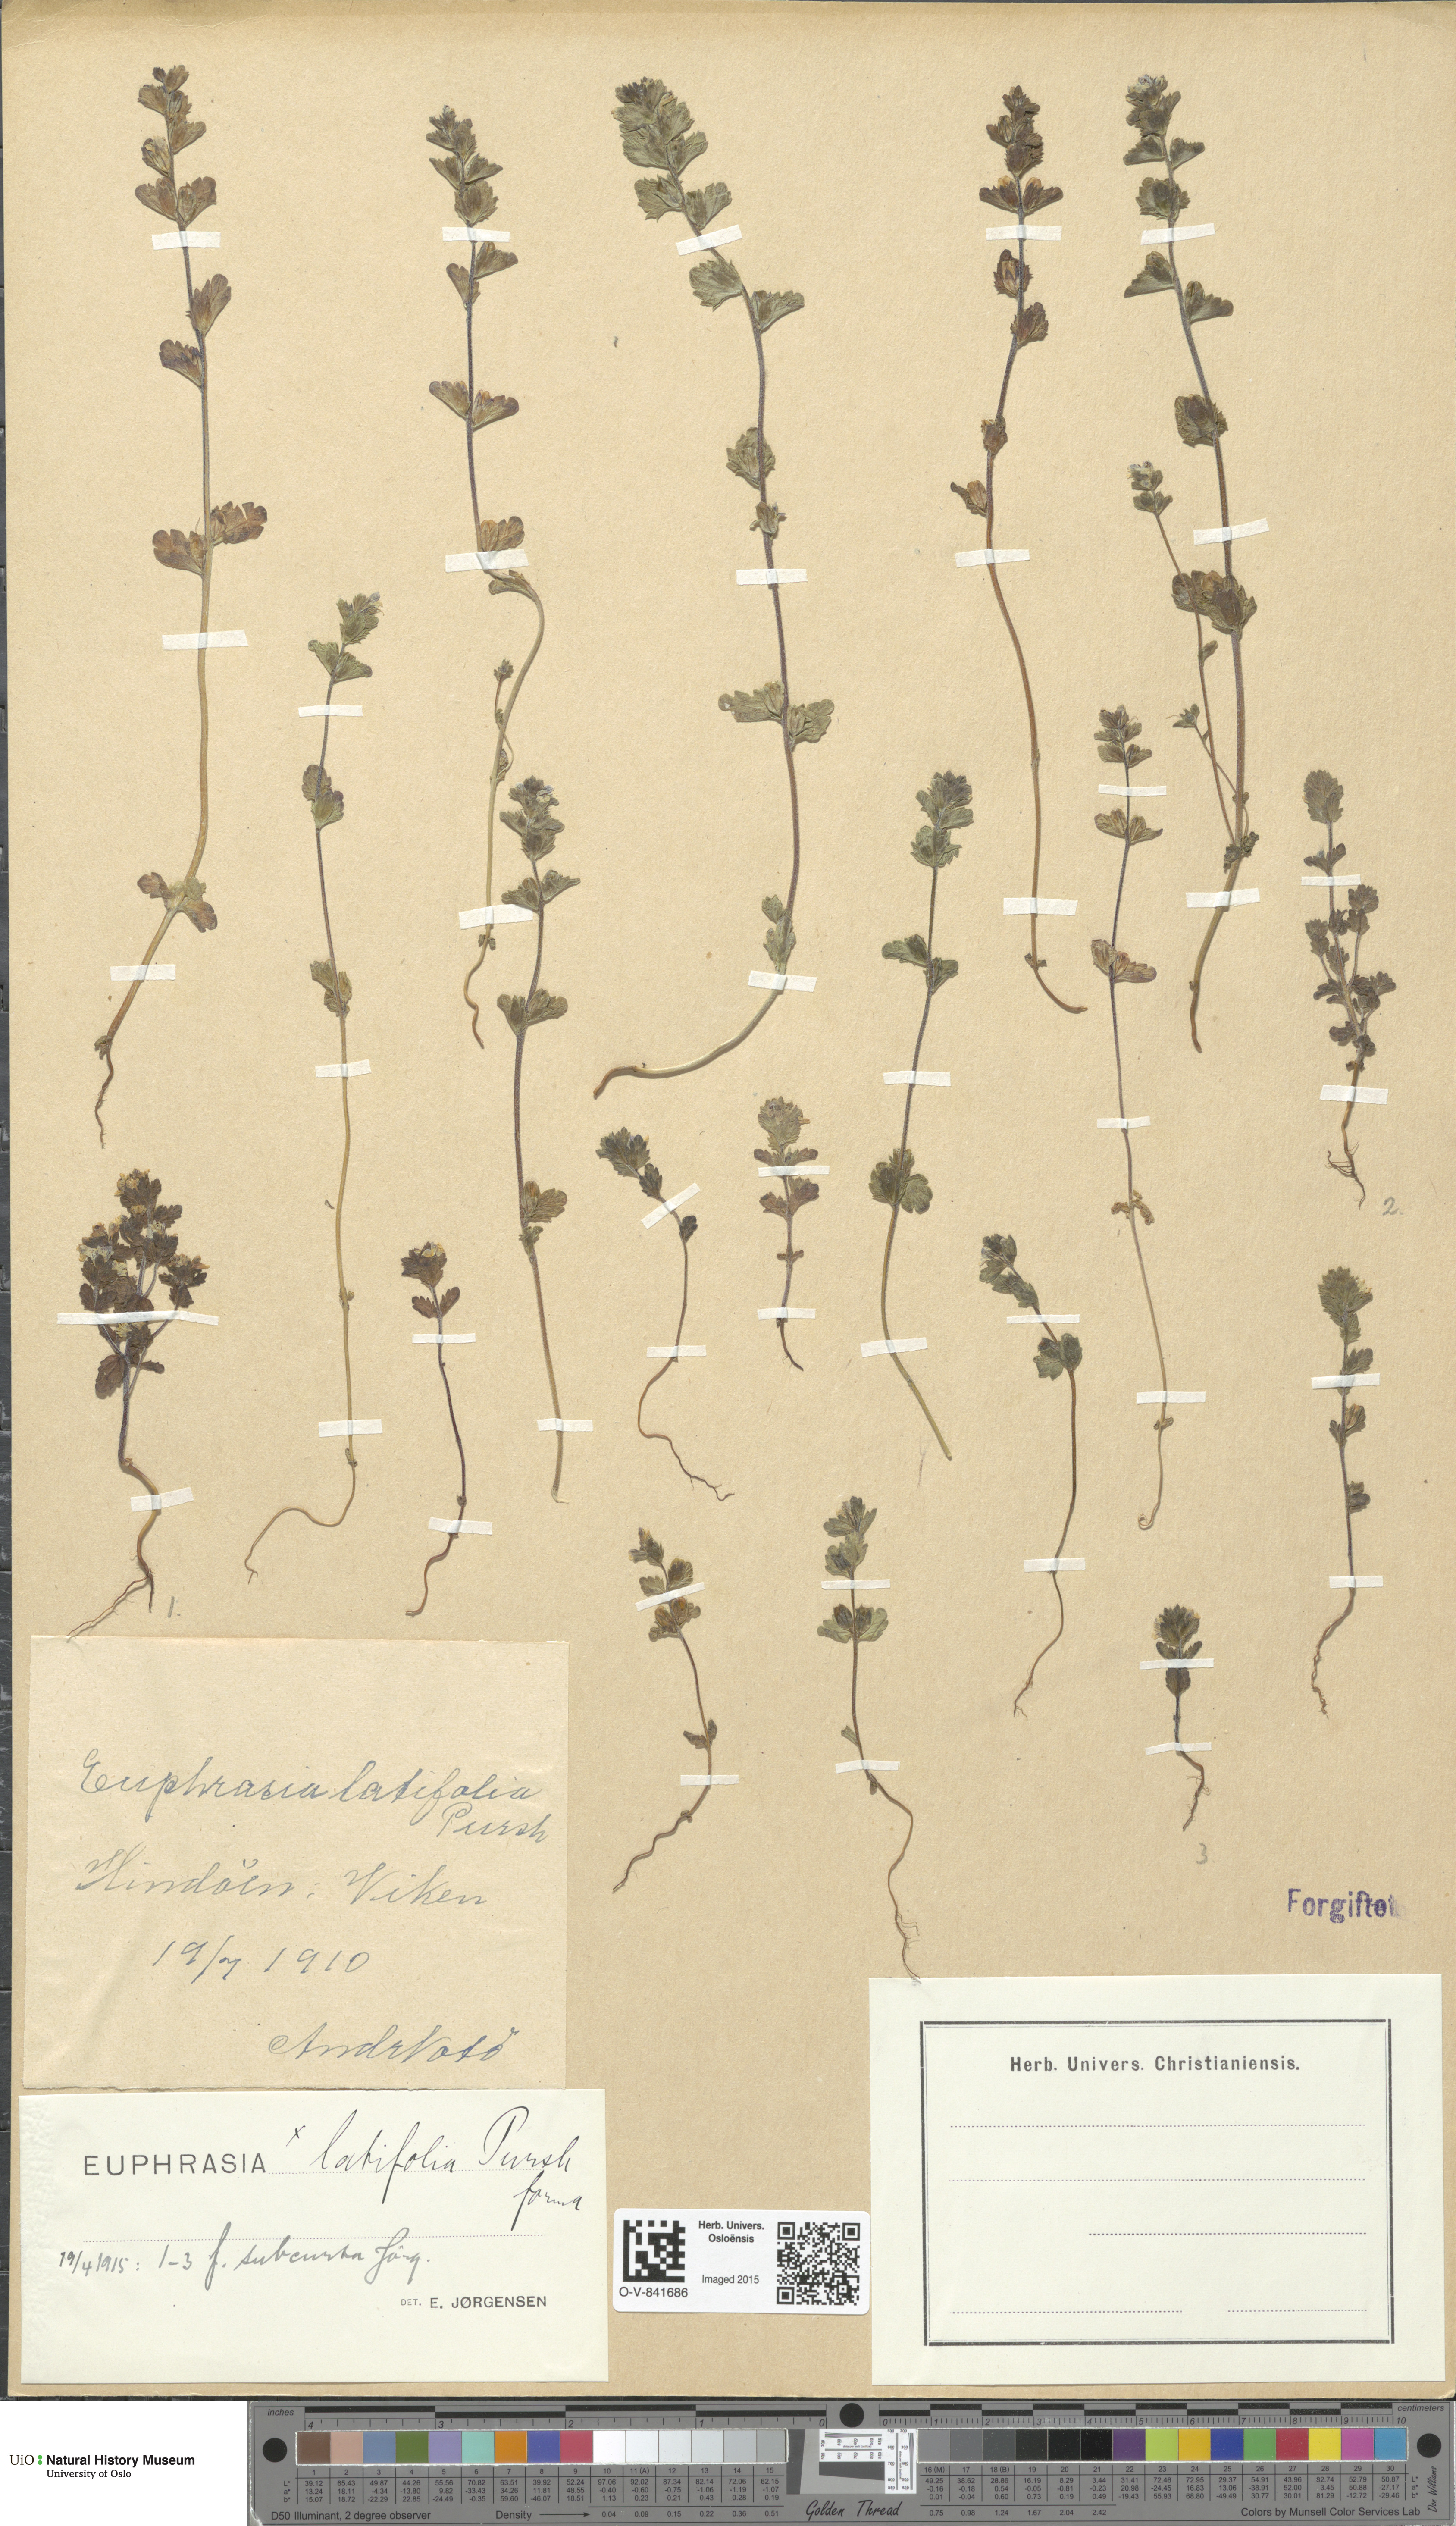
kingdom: Plantae
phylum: Tracheophyta
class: Magnoliopsida
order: Lamiales
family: Orobanchaceae
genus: Euphrasia
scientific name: Euphrasia wettsteinii
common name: Wettstein's eyebright
